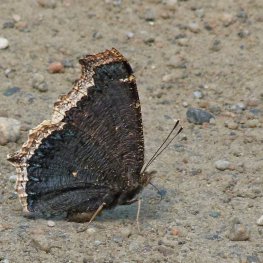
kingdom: Animalia
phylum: Arthropoda
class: Insecta
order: Lepidoptera
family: Nymphalidae
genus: Nymphalis
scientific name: Nymphalis antiopa
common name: Mourning Cloak
